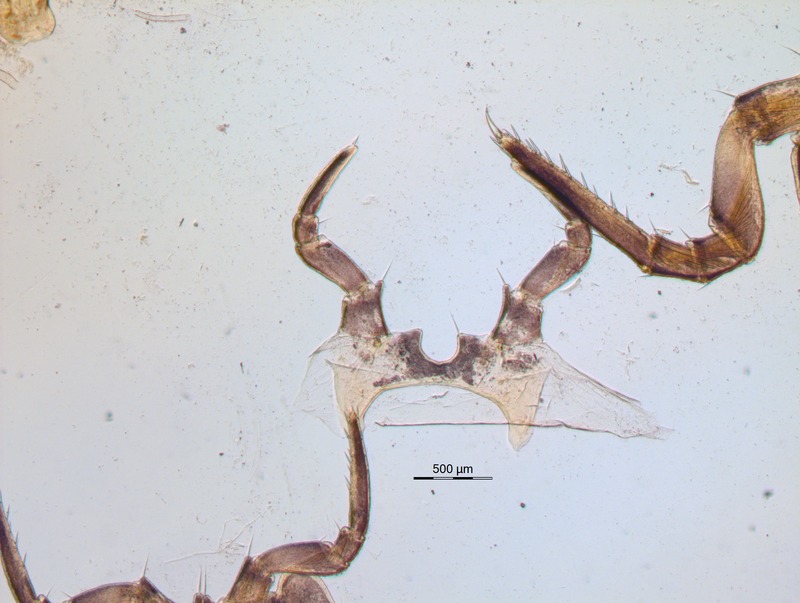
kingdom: Animalia
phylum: Arthropoda
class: Diplopoda
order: Glomerida
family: Glomeridae
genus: Glomeris
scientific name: Glomeris klugii
